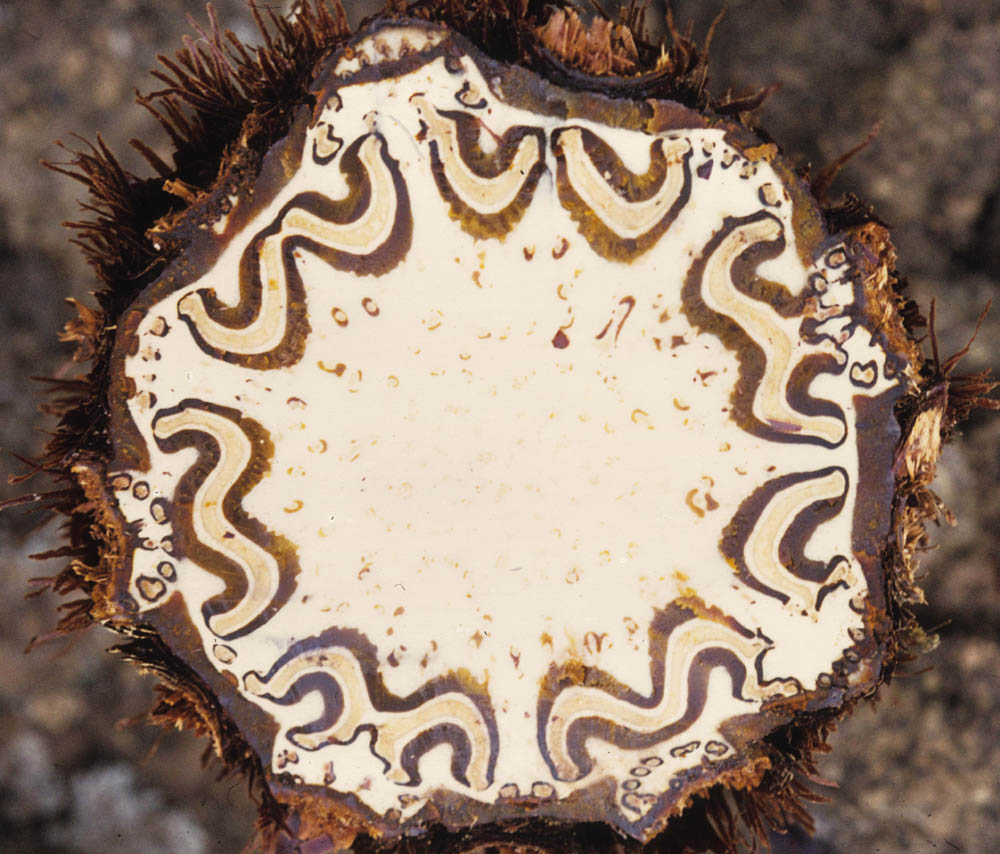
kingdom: Plantae
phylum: Tracheophyta
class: Polypodiopsida
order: Cyatheales
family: Cyatheaceae
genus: Cyathea
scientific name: Cyathea frigida
